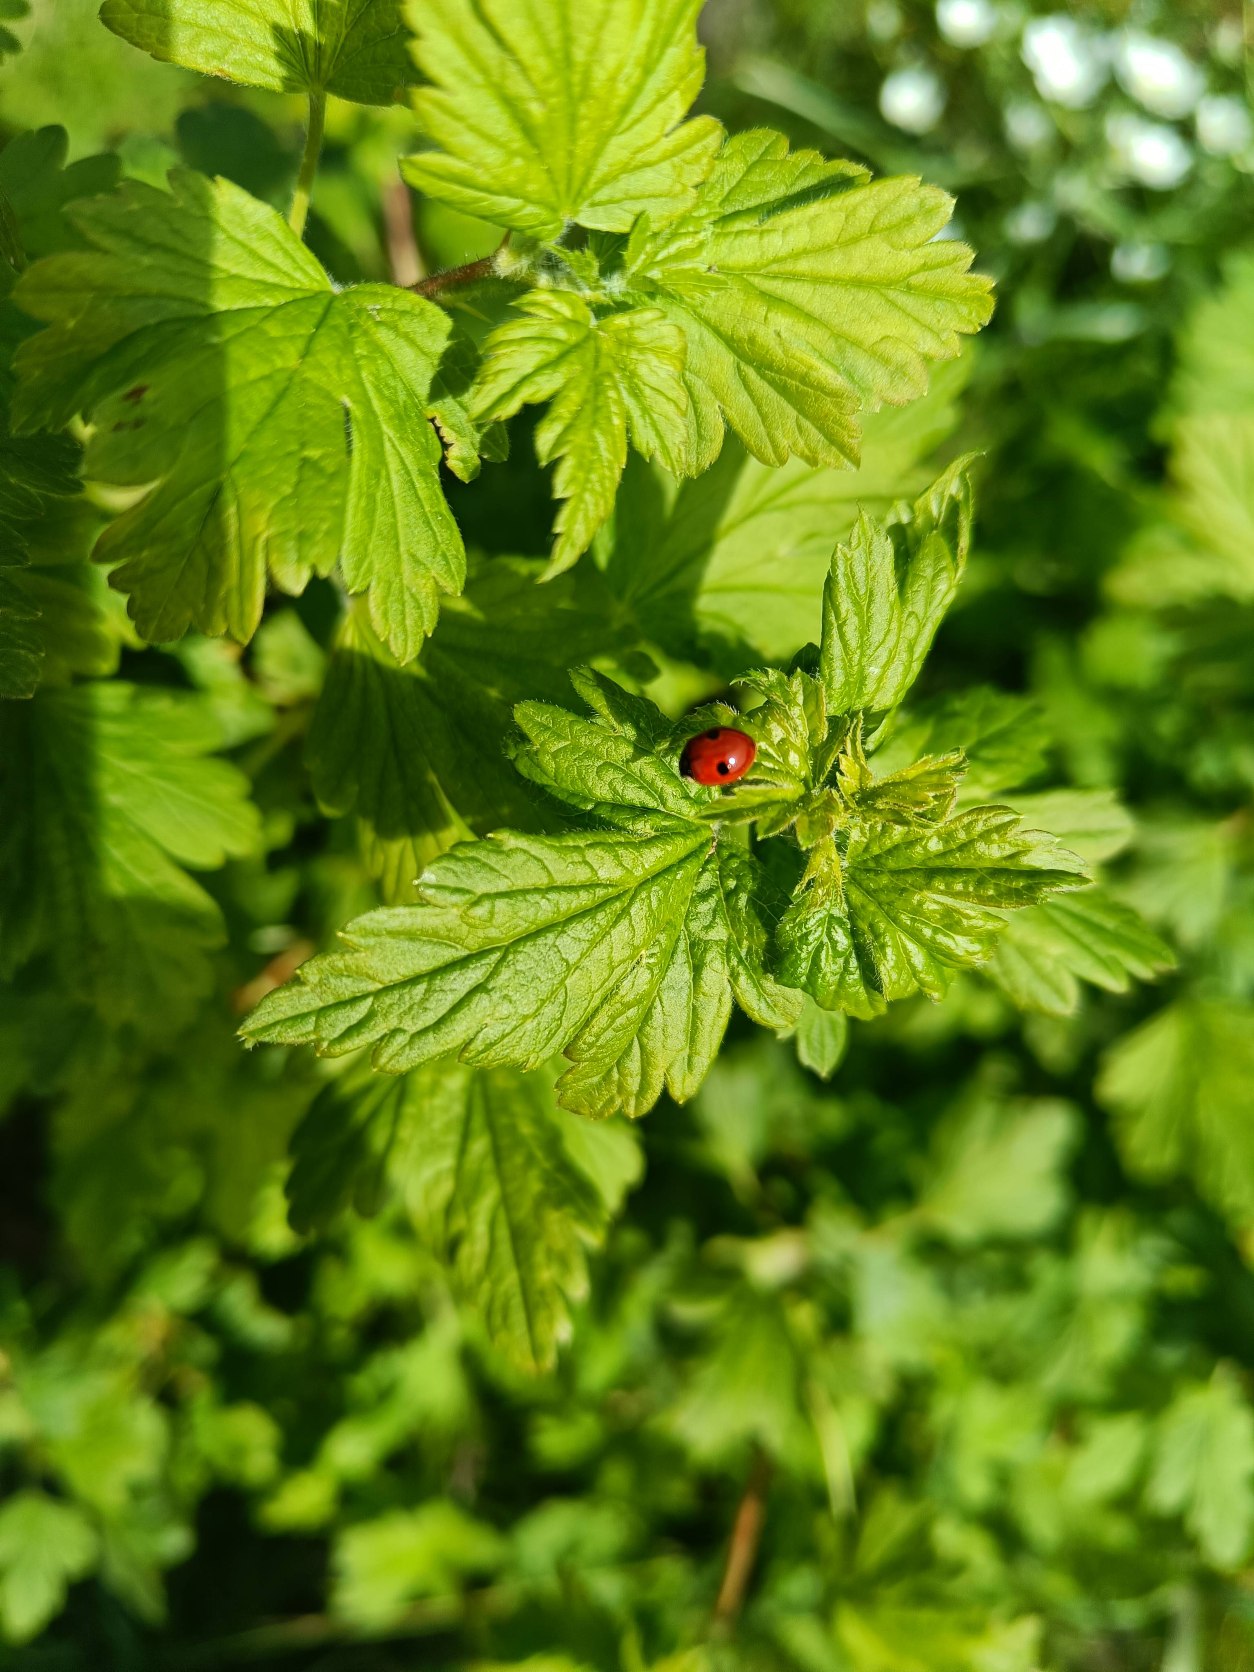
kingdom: Animalia
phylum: Arthropoda
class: Insecta
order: Coleoptera
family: Coccinellidae
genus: Adalia
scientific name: Adalia bipunctata
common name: Toplettet mariehøne
